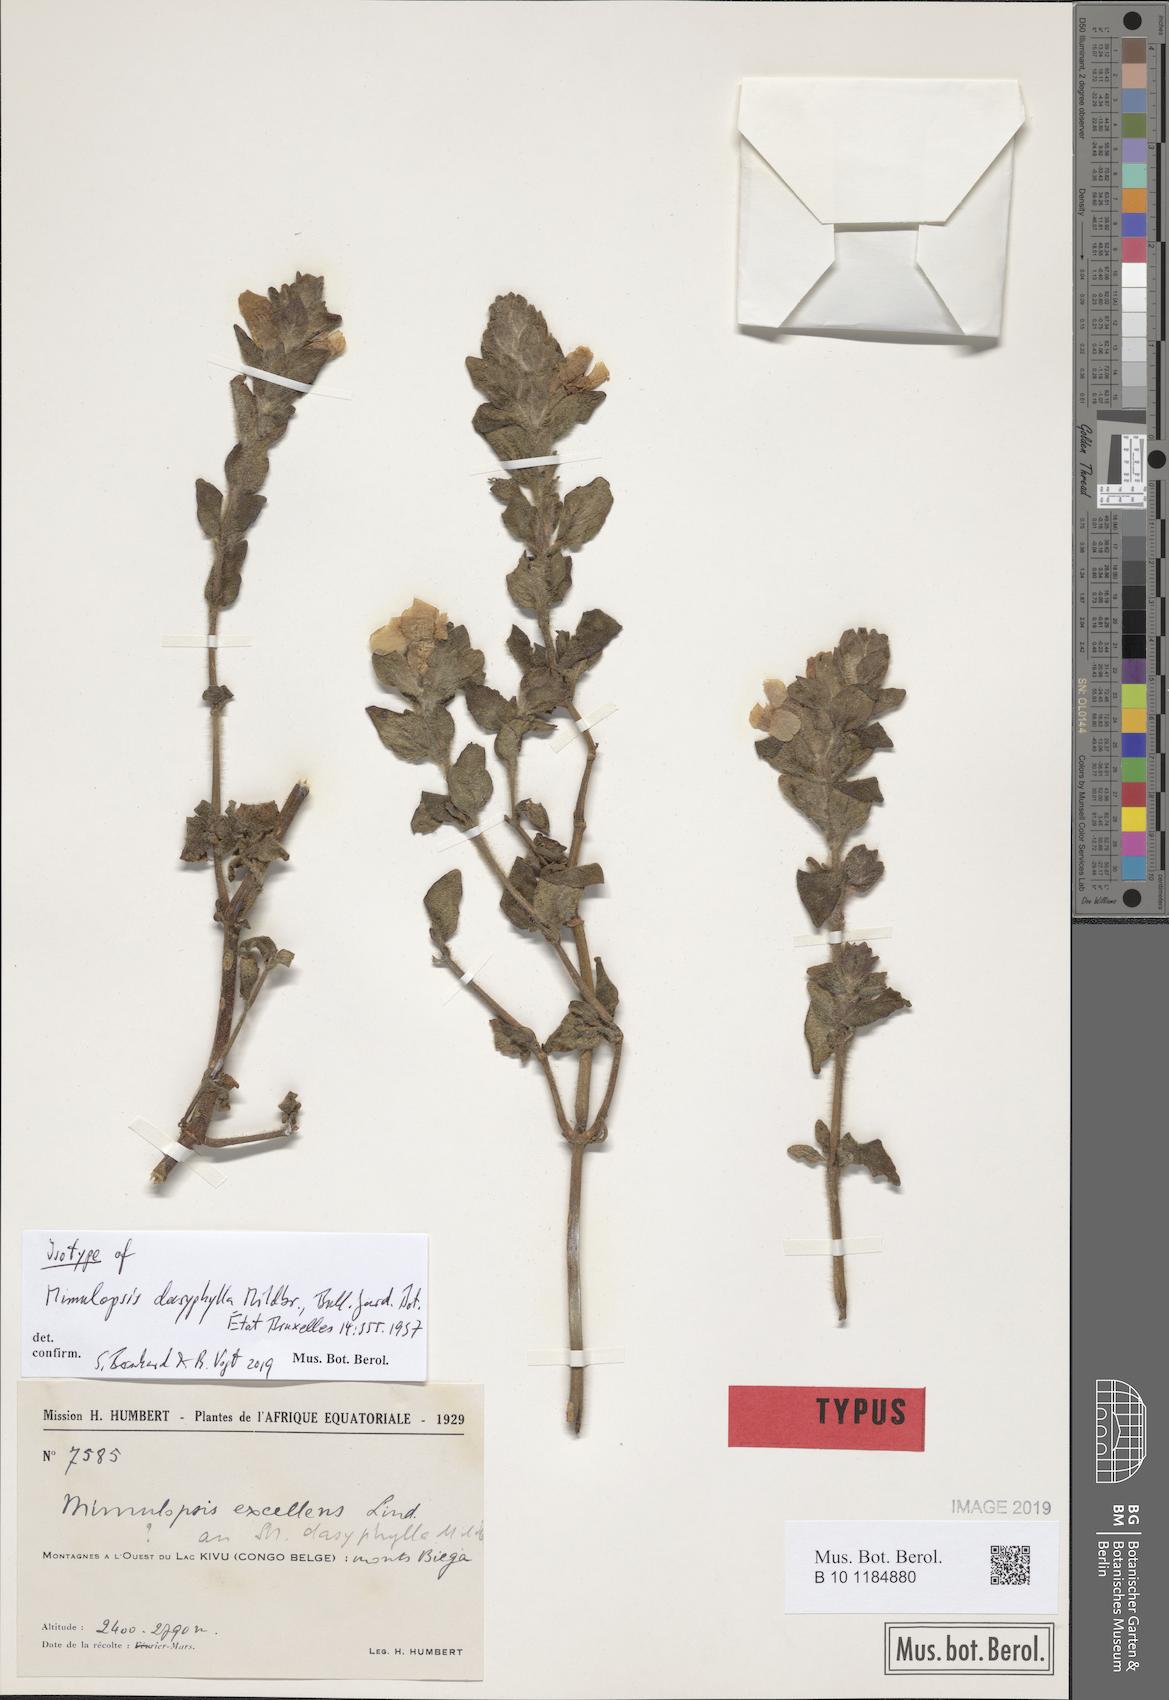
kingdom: Plantae
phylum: Tracheophyta
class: Magnoliopsida
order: Lamiales
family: Acanthaceae
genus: Mimulopsis
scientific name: Mimulopsis dasyphylla
